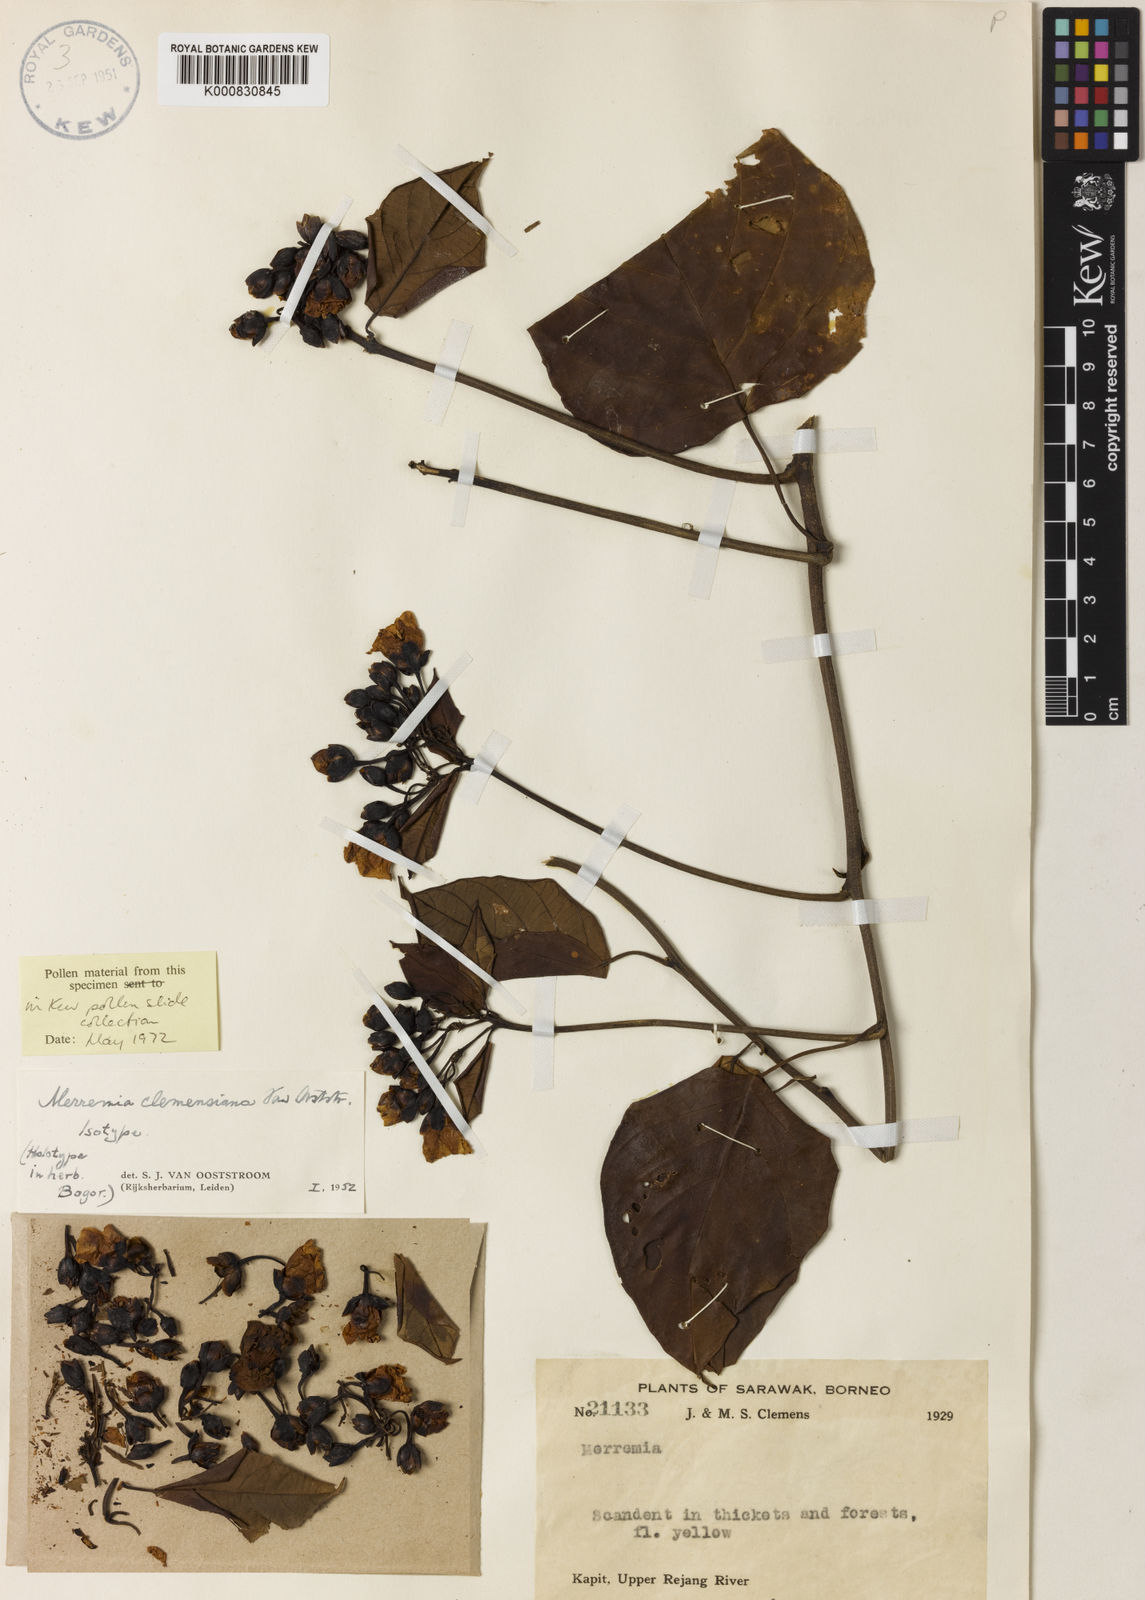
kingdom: Plantae
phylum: Tracheophyta
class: Magnoliopsida
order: Solanales
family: Convolvulaceae
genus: Merremia
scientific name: Merremia clemensiana
